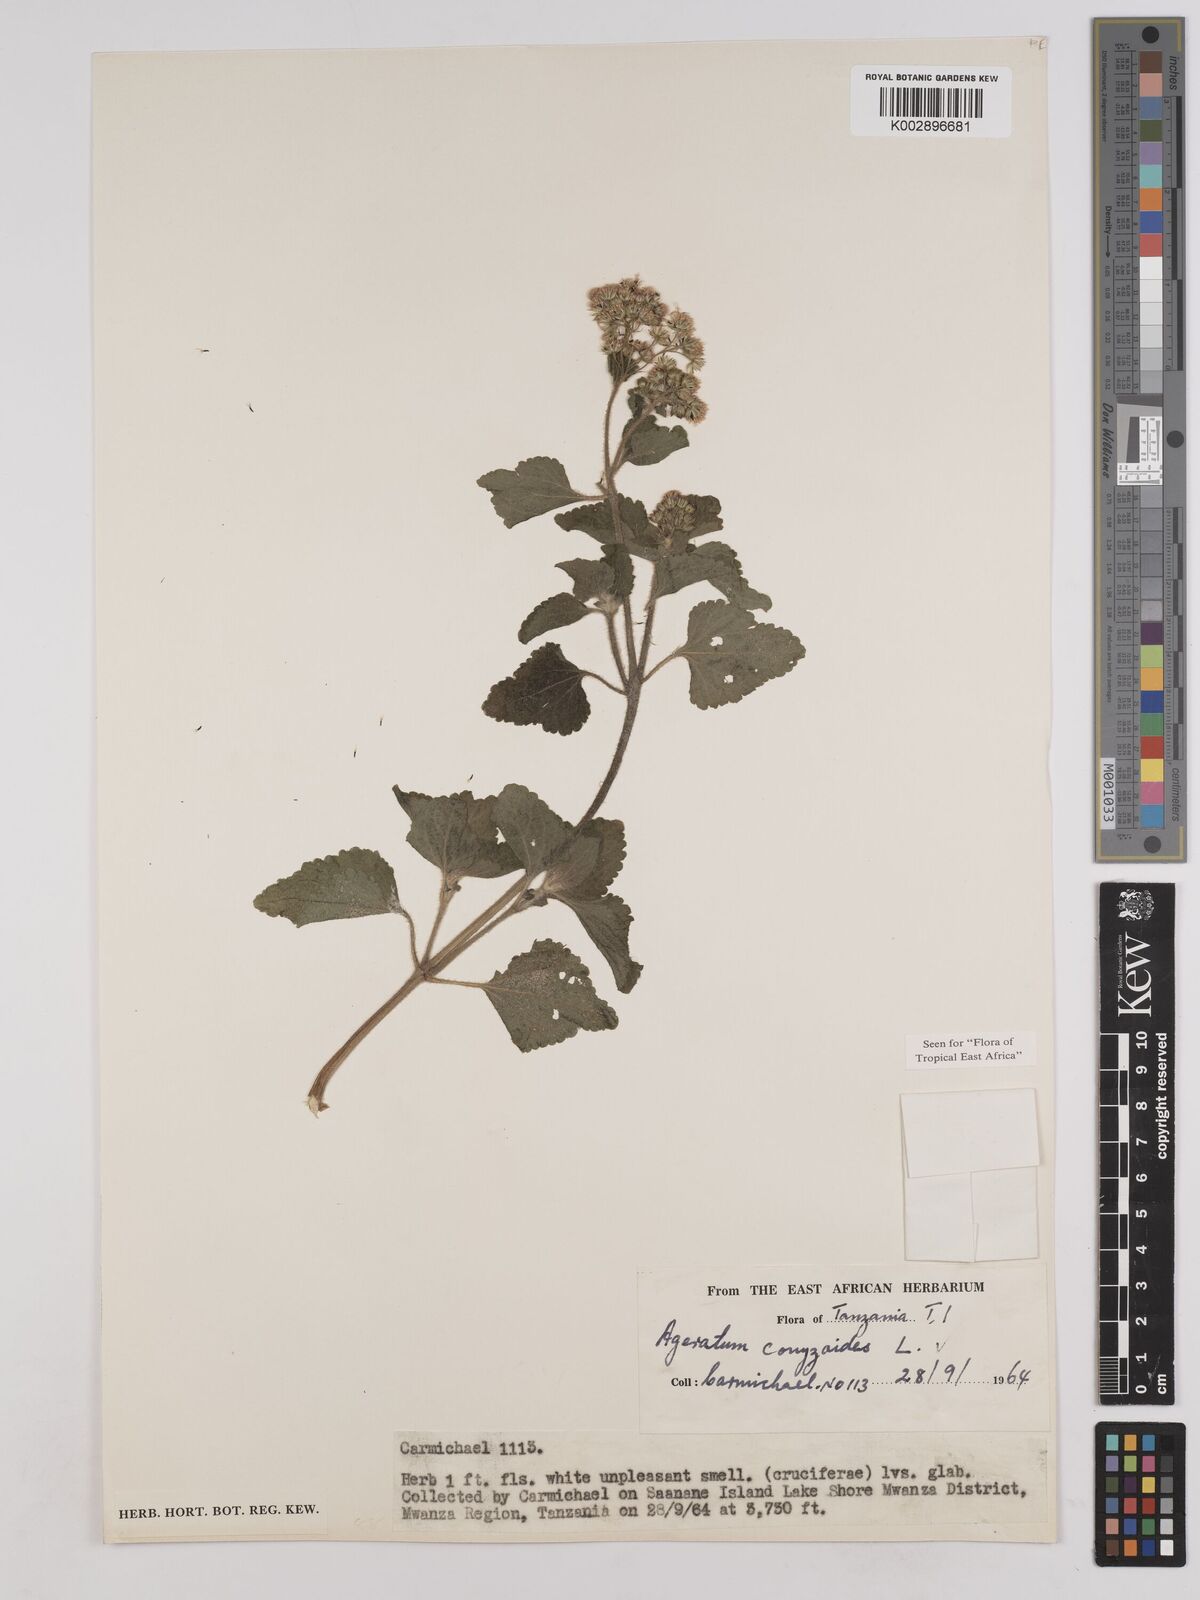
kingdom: Plantae
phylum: Tracheophyta
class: Magnoliopsida
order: Asterales
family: Asteraceae
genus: Ageratum
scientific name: Ageratum conyzoides
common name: Tropical whiteweed
